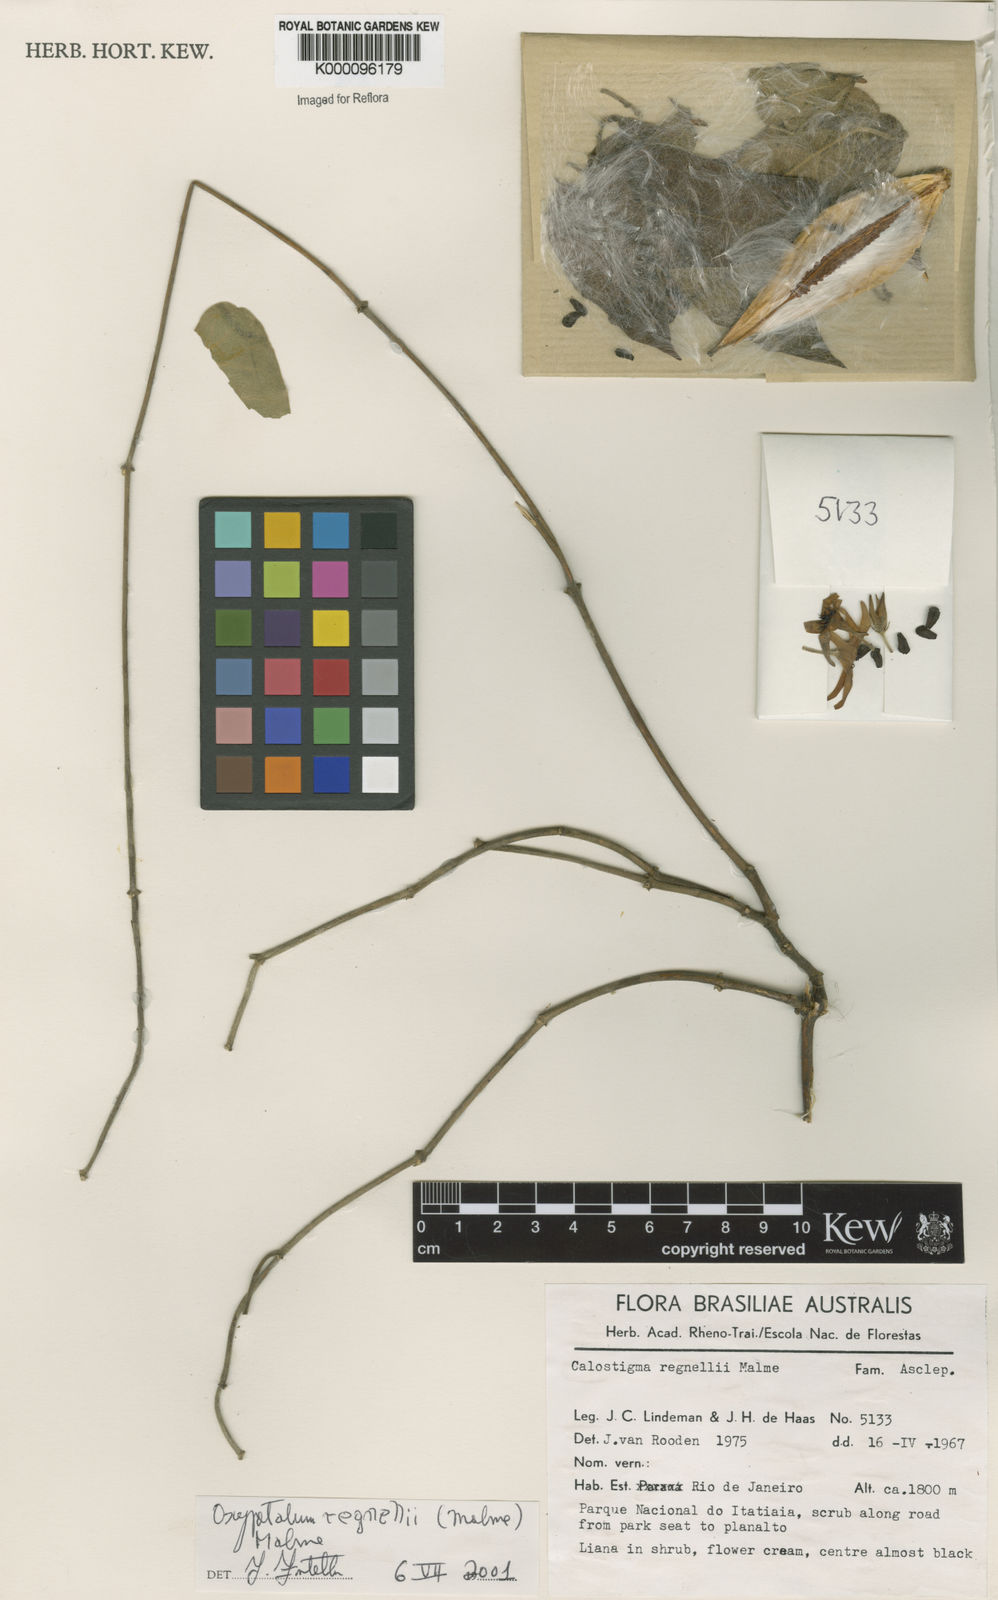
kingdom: Plantae
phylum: Tracheophyta
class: Magnoliopsida
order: Gentianales
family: Apocynaceae
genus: Oxypetalum
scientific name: Oxypetalum regnellii
